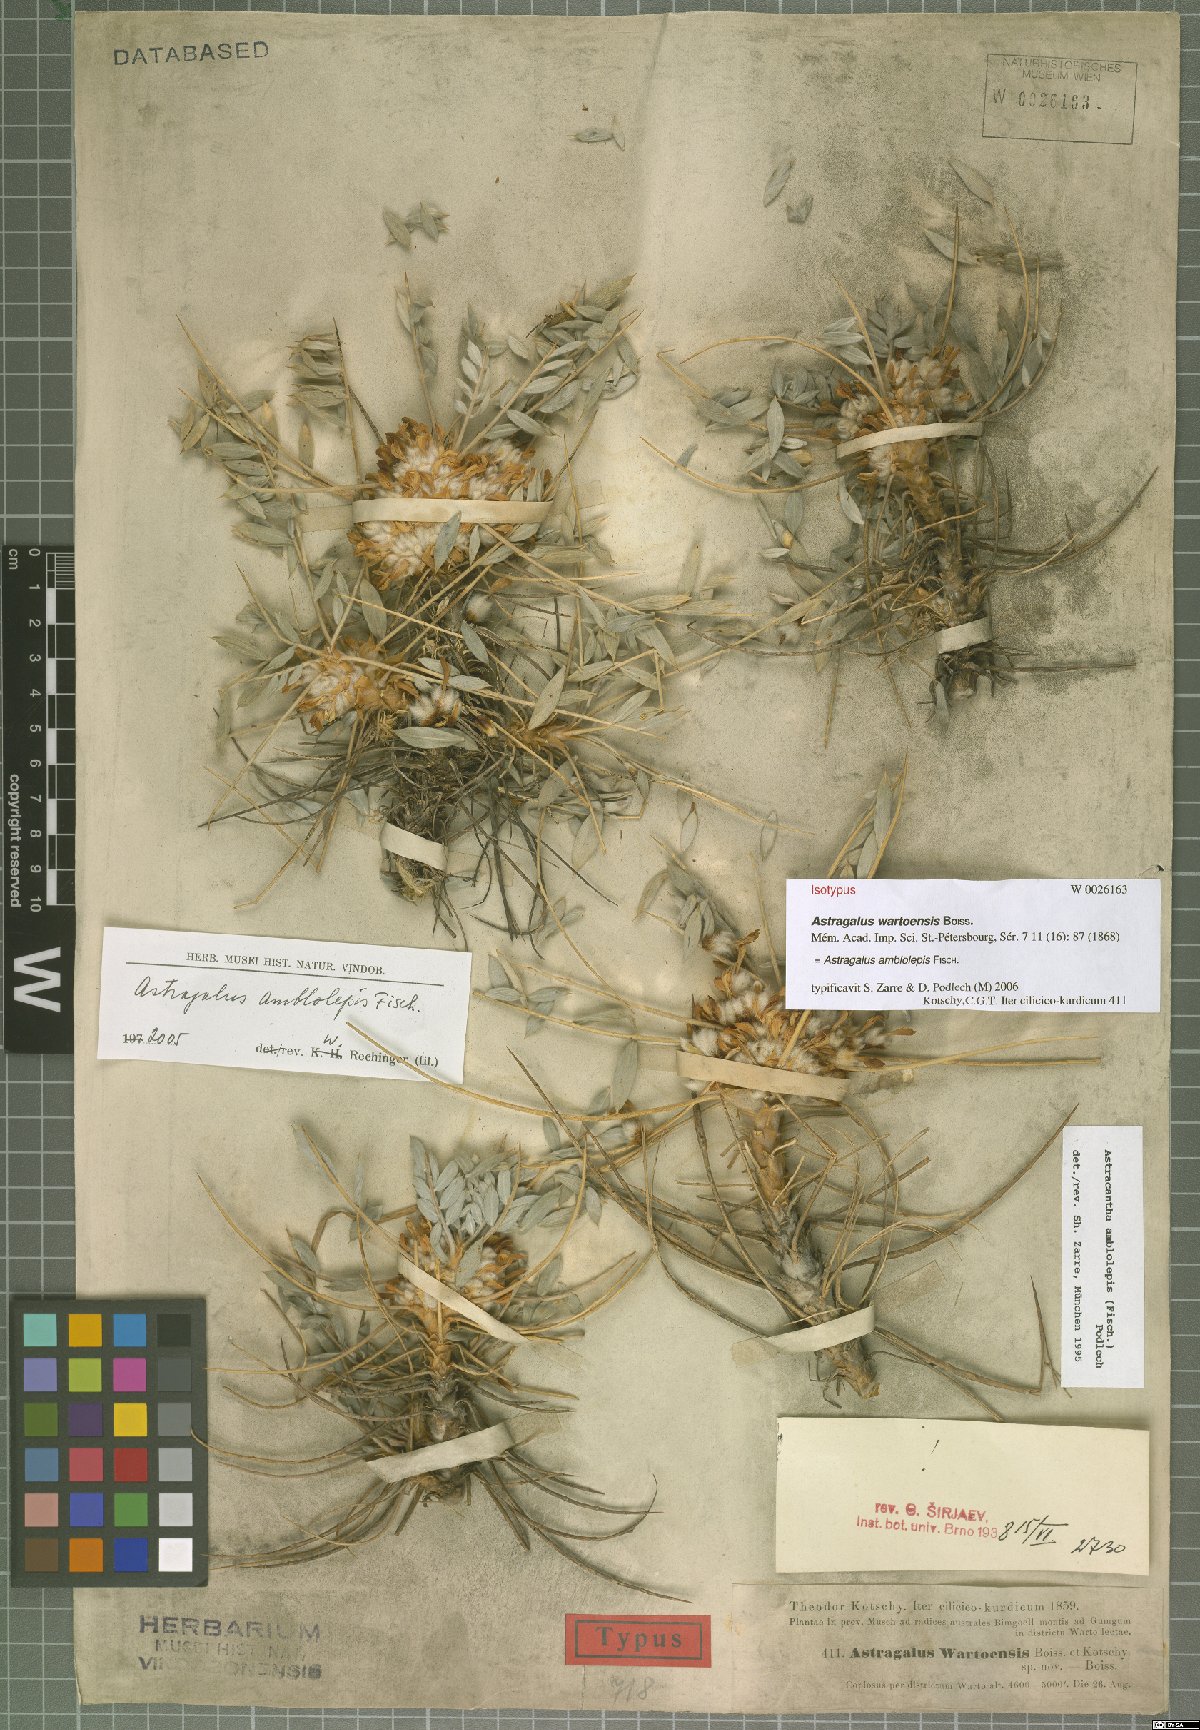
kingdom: Plantae
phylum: Tracheophyta
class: Magnoliopsida
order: Fabales
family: Fabaceae
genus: Astragalus
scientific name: Astragalus amblolepis
